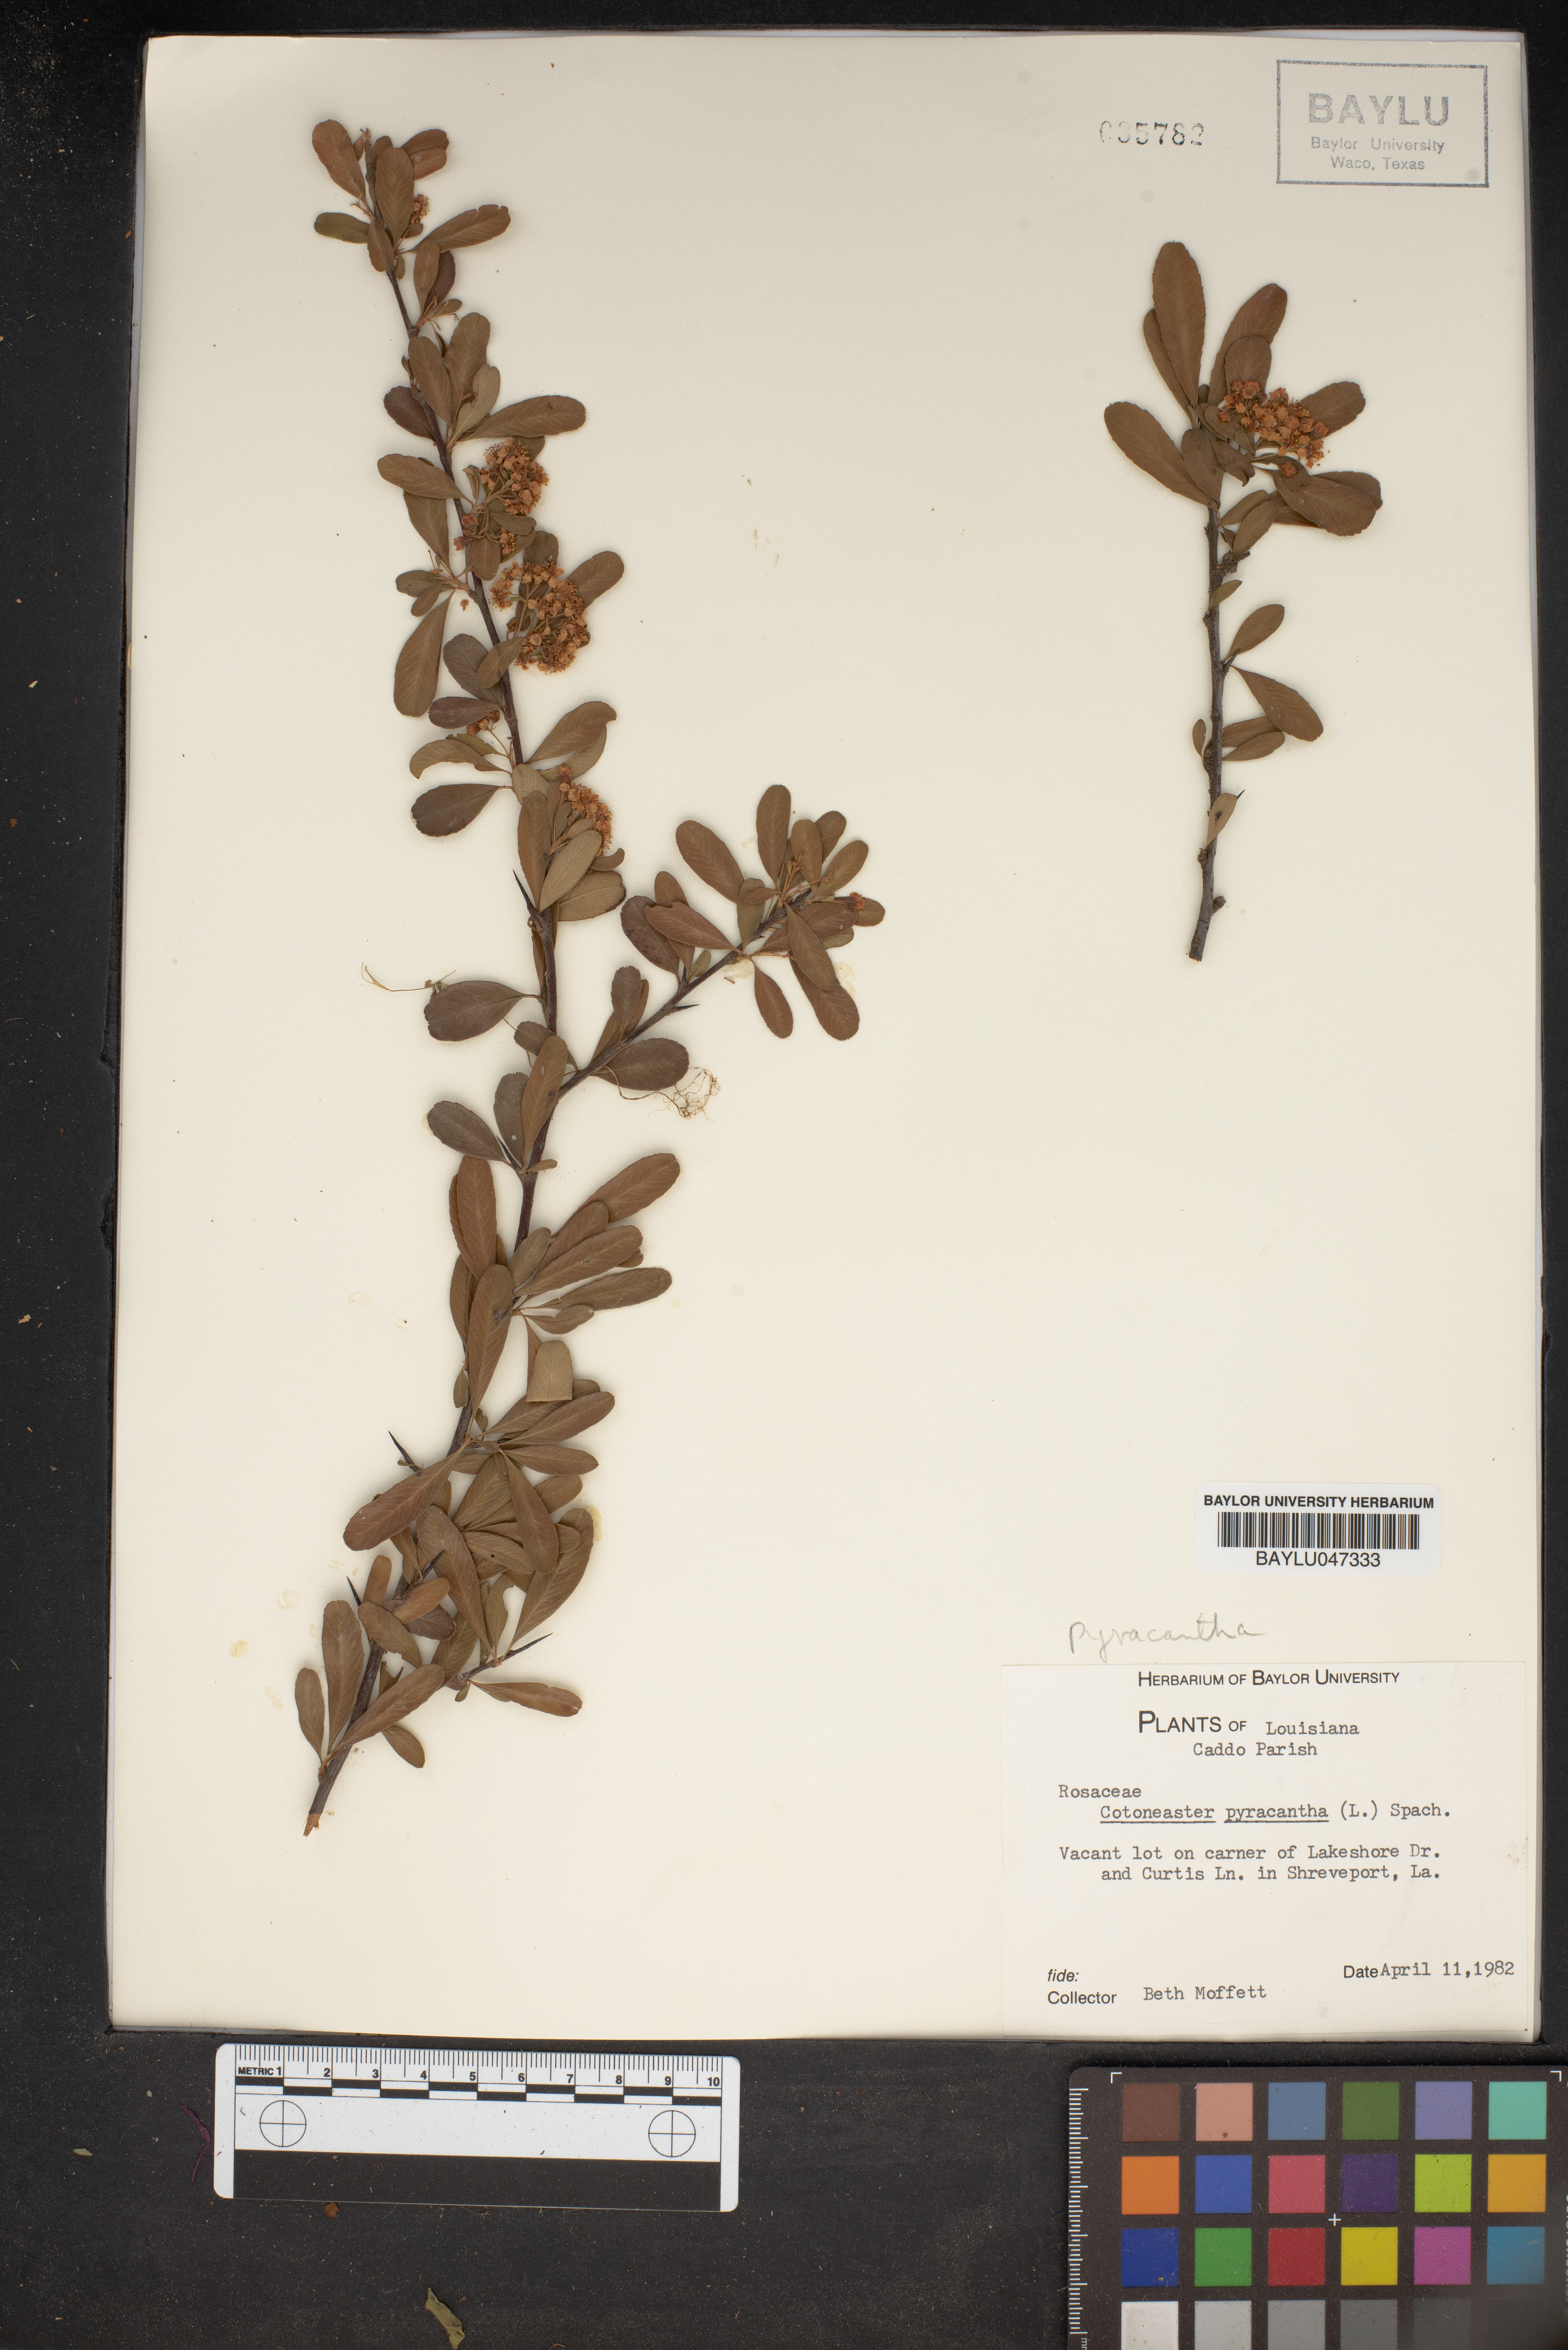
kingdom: Plantae
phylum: Tracheophyta
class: Magnoliopsida
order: Rosales
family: Rosaceae
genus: Pyracantha
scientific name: Pyracantha coccinea
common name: Firethorn
